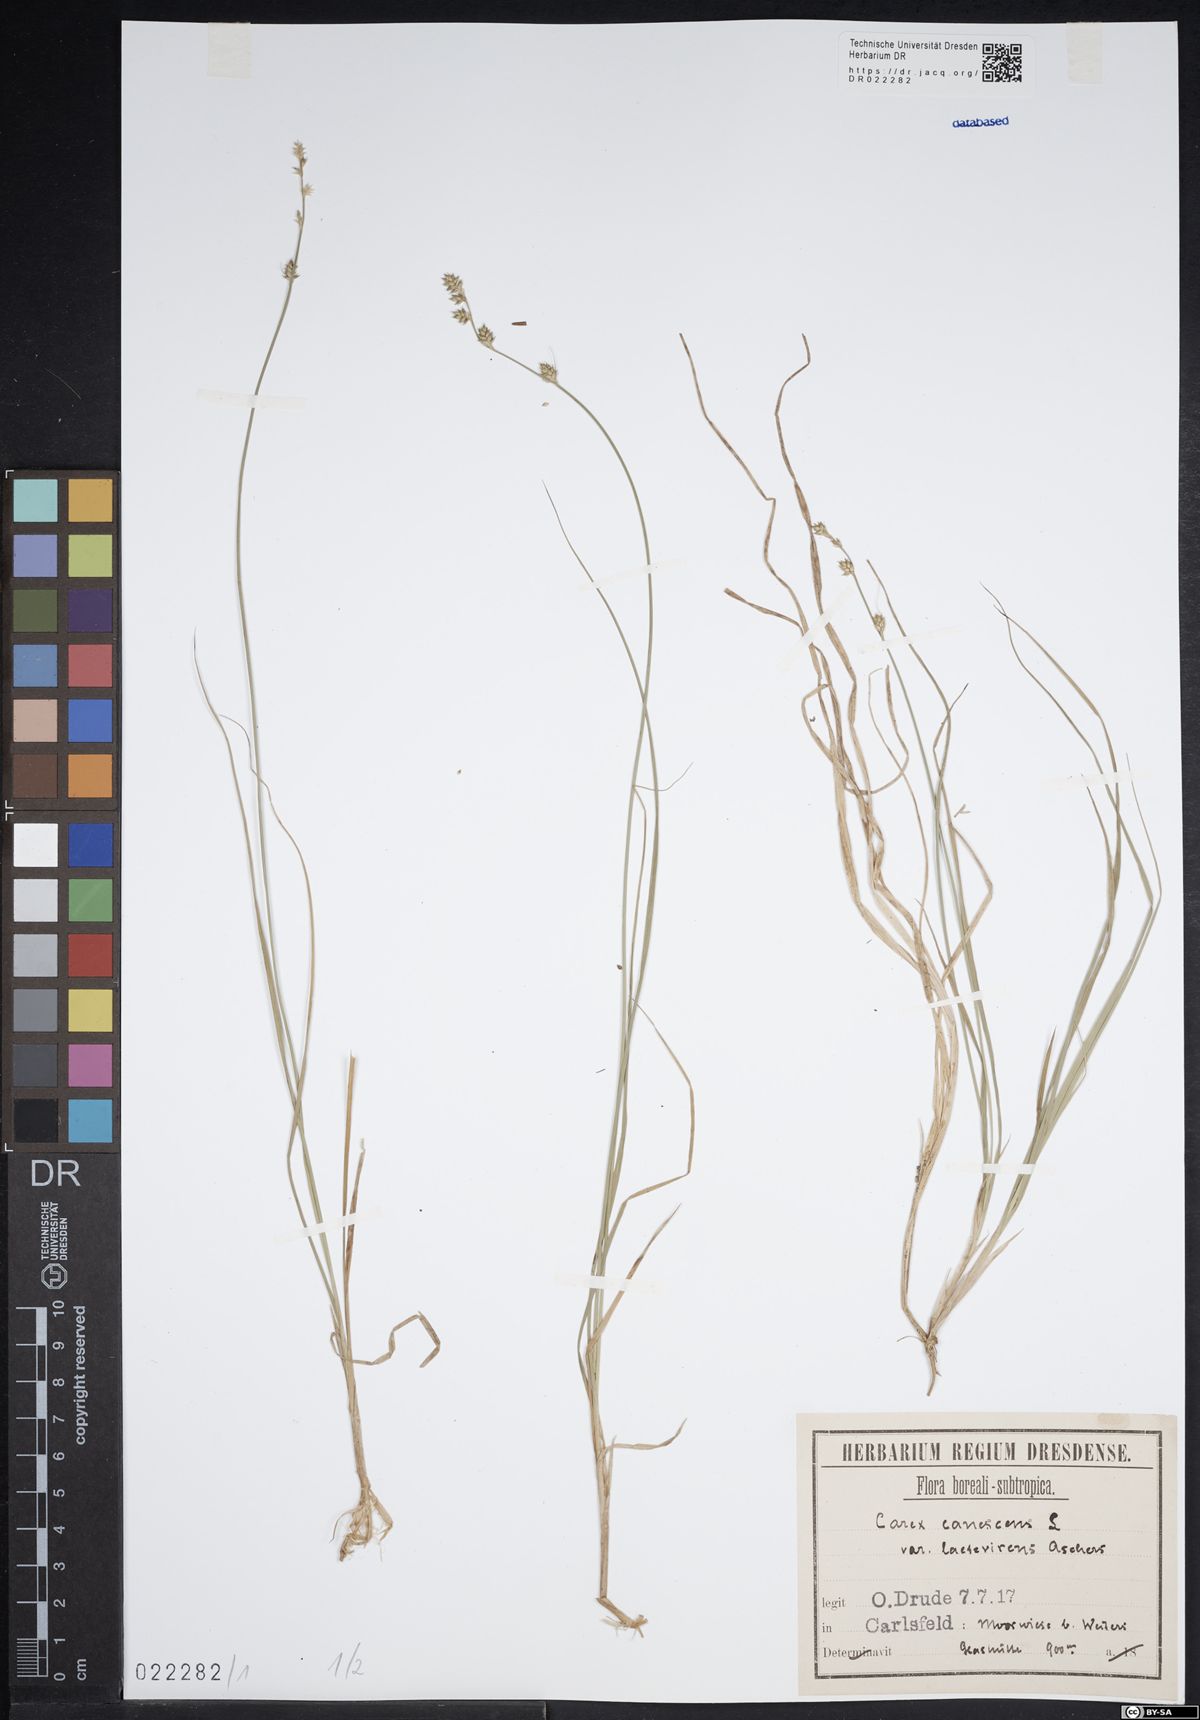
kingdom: Plantae
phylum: Tracheophyta
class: Liliopsida
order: Poales
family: Cyperaceae
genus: Carex
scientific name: Carex canescens
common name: White sedge
